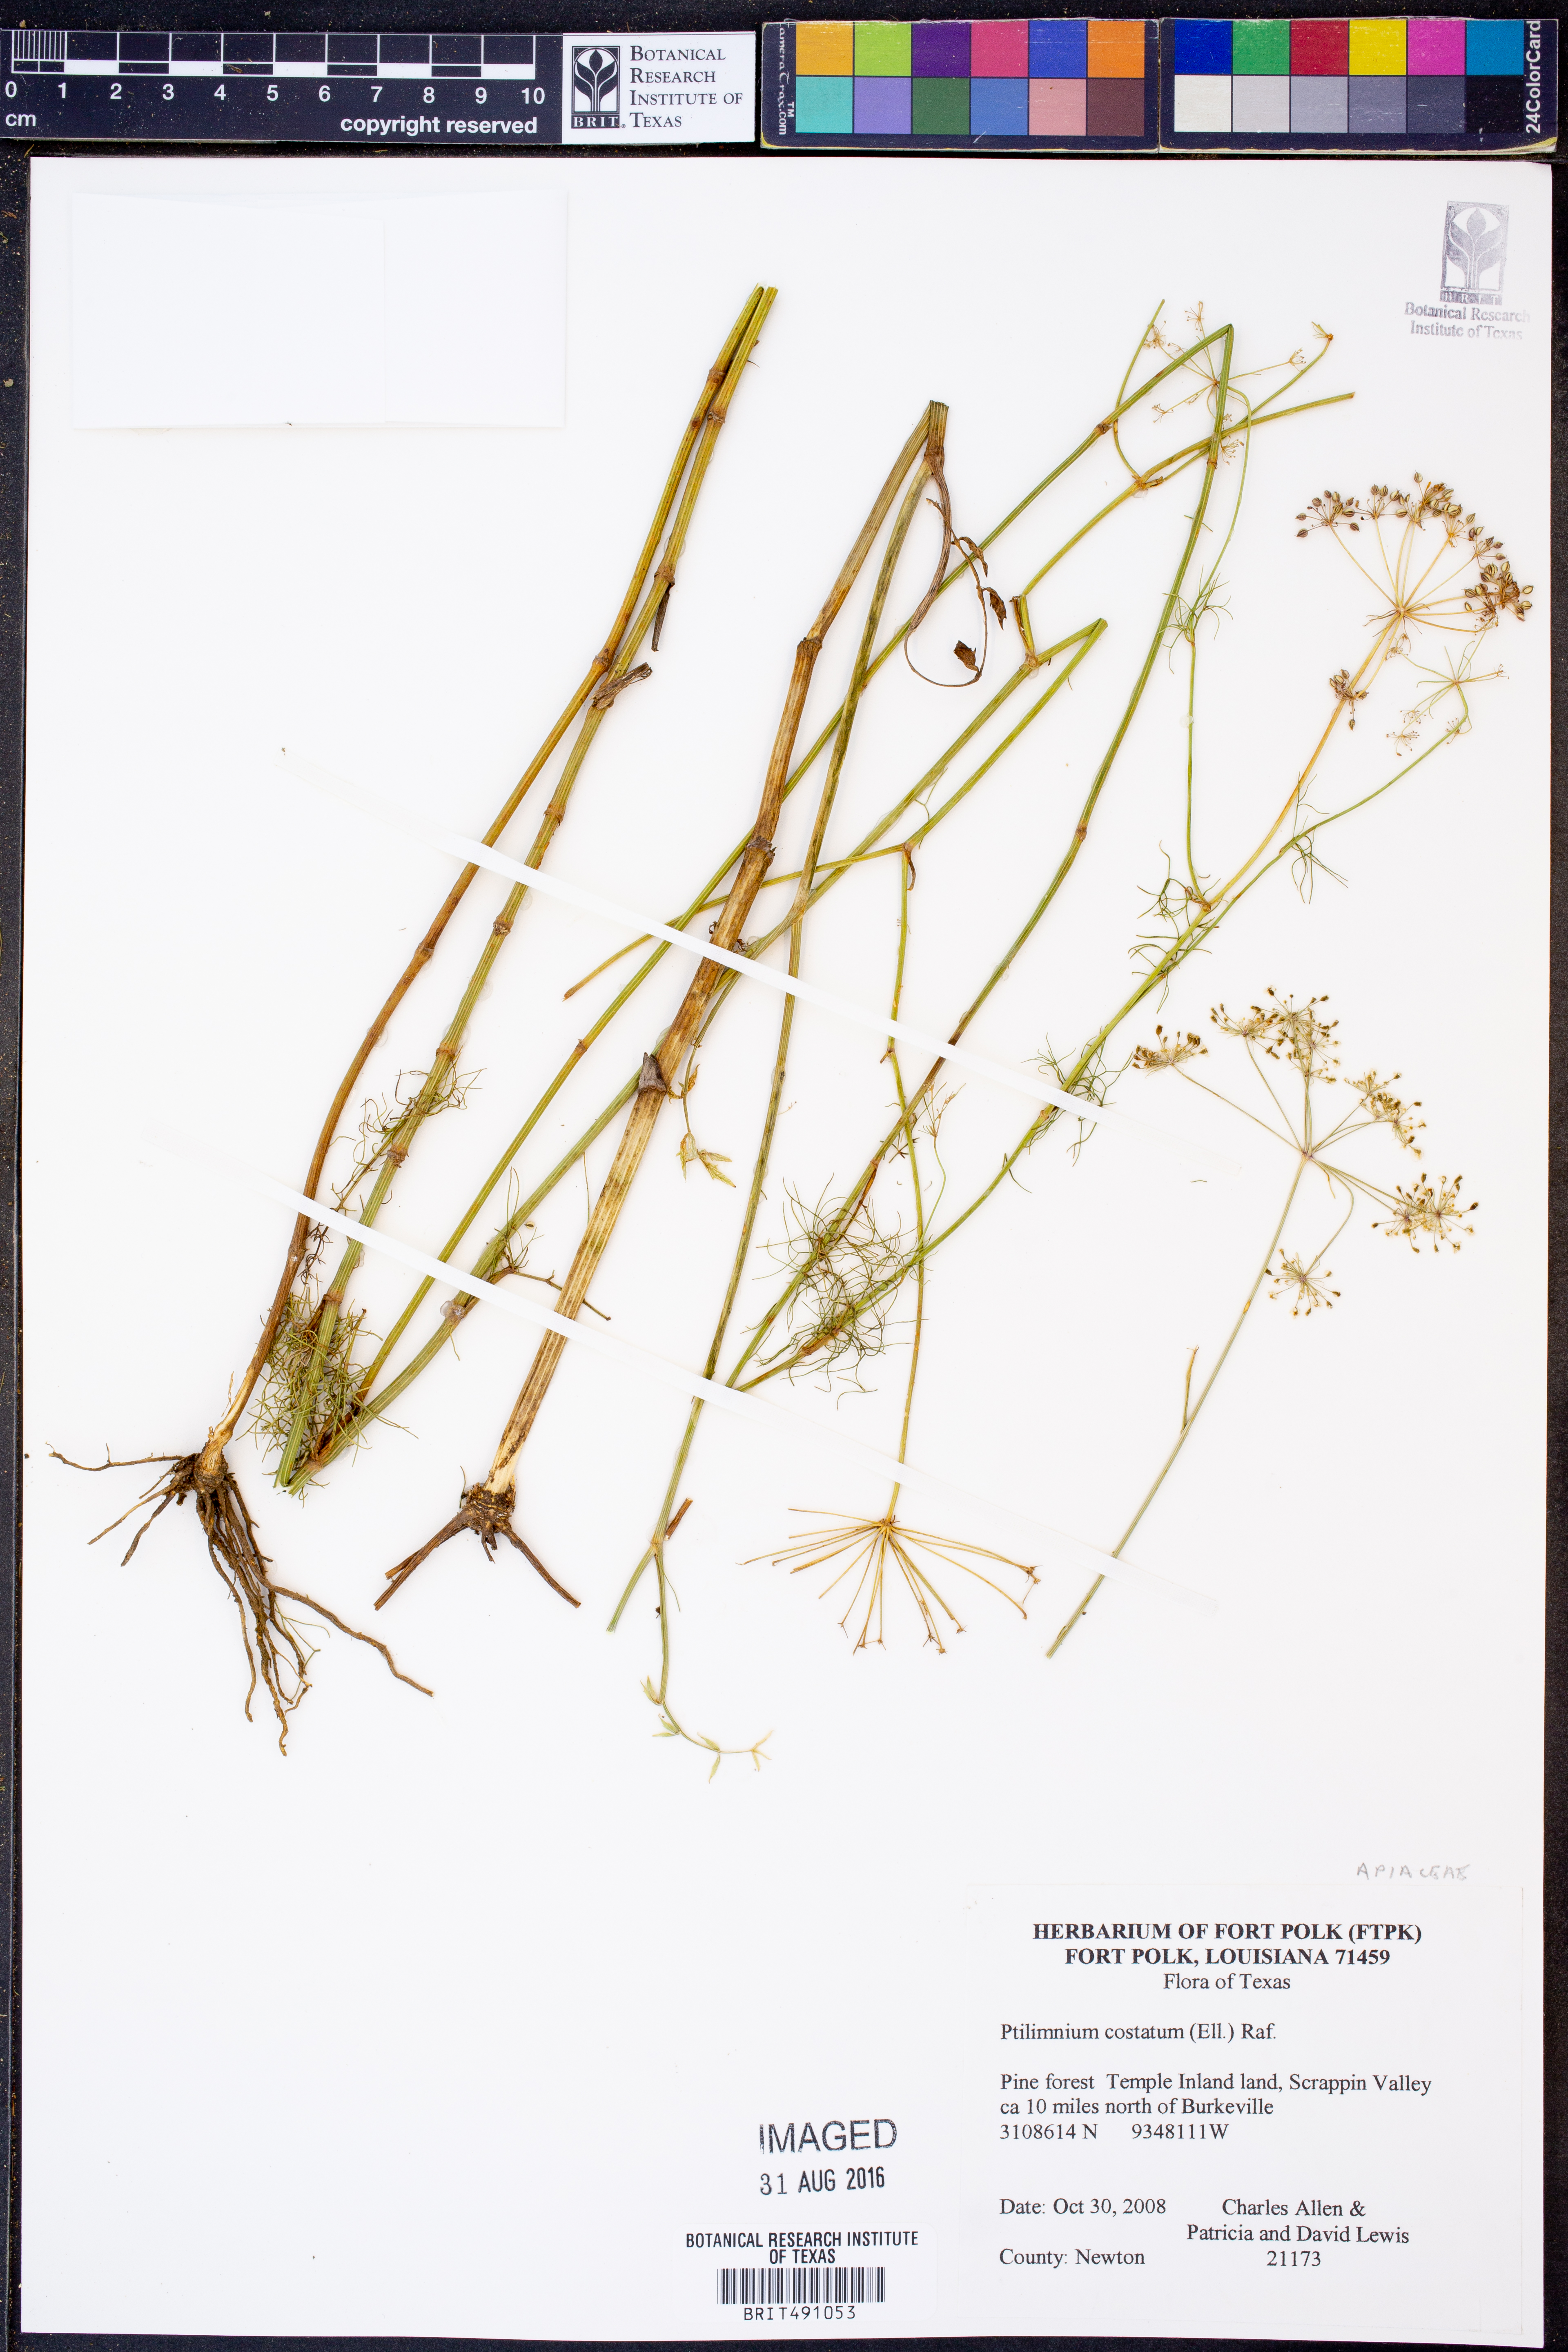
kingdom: Plantae
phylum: Tracheophyta
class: Magnoliopsida
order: Apiales
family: Apiaceae
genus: Ptilimnium
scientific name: Ptilimnium costatum
